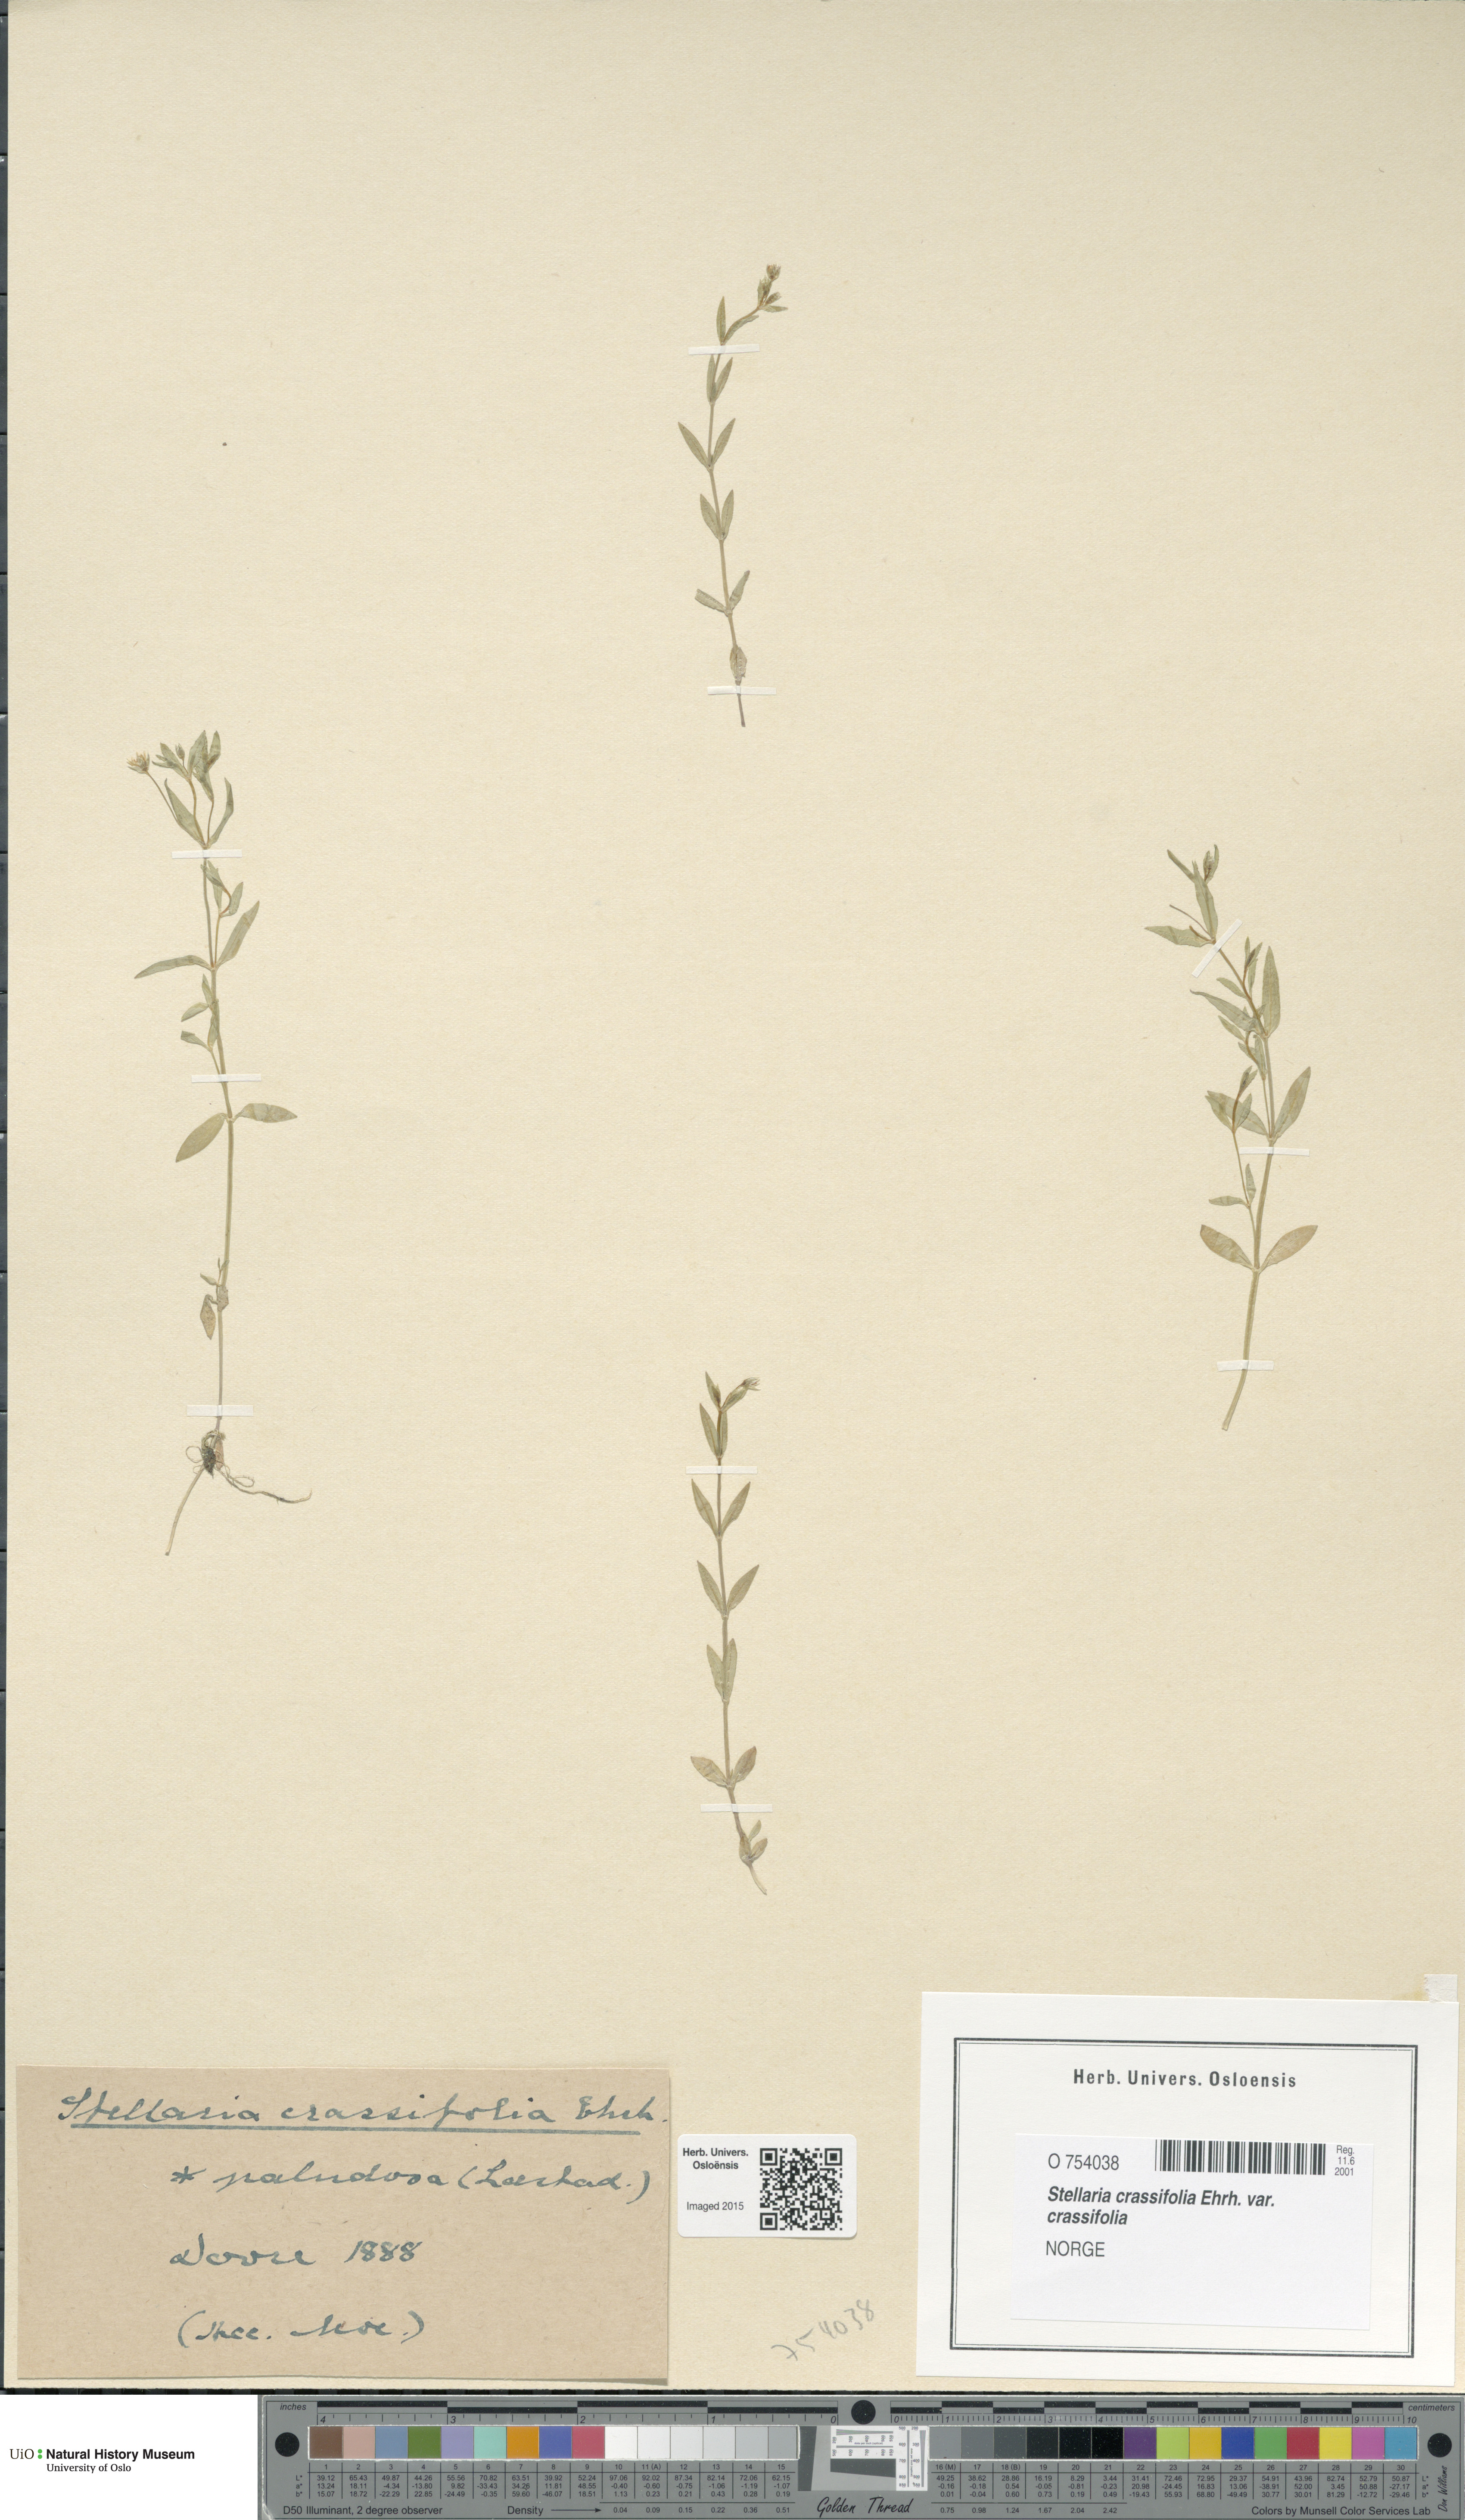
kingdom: Plantae
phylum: Tracheophyta
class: Magnoliopsida
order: Caryophyllales
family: Caryophyllaceae
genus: Stellaria
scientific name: Stellaria crassifolia
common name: Fleshy starwort
